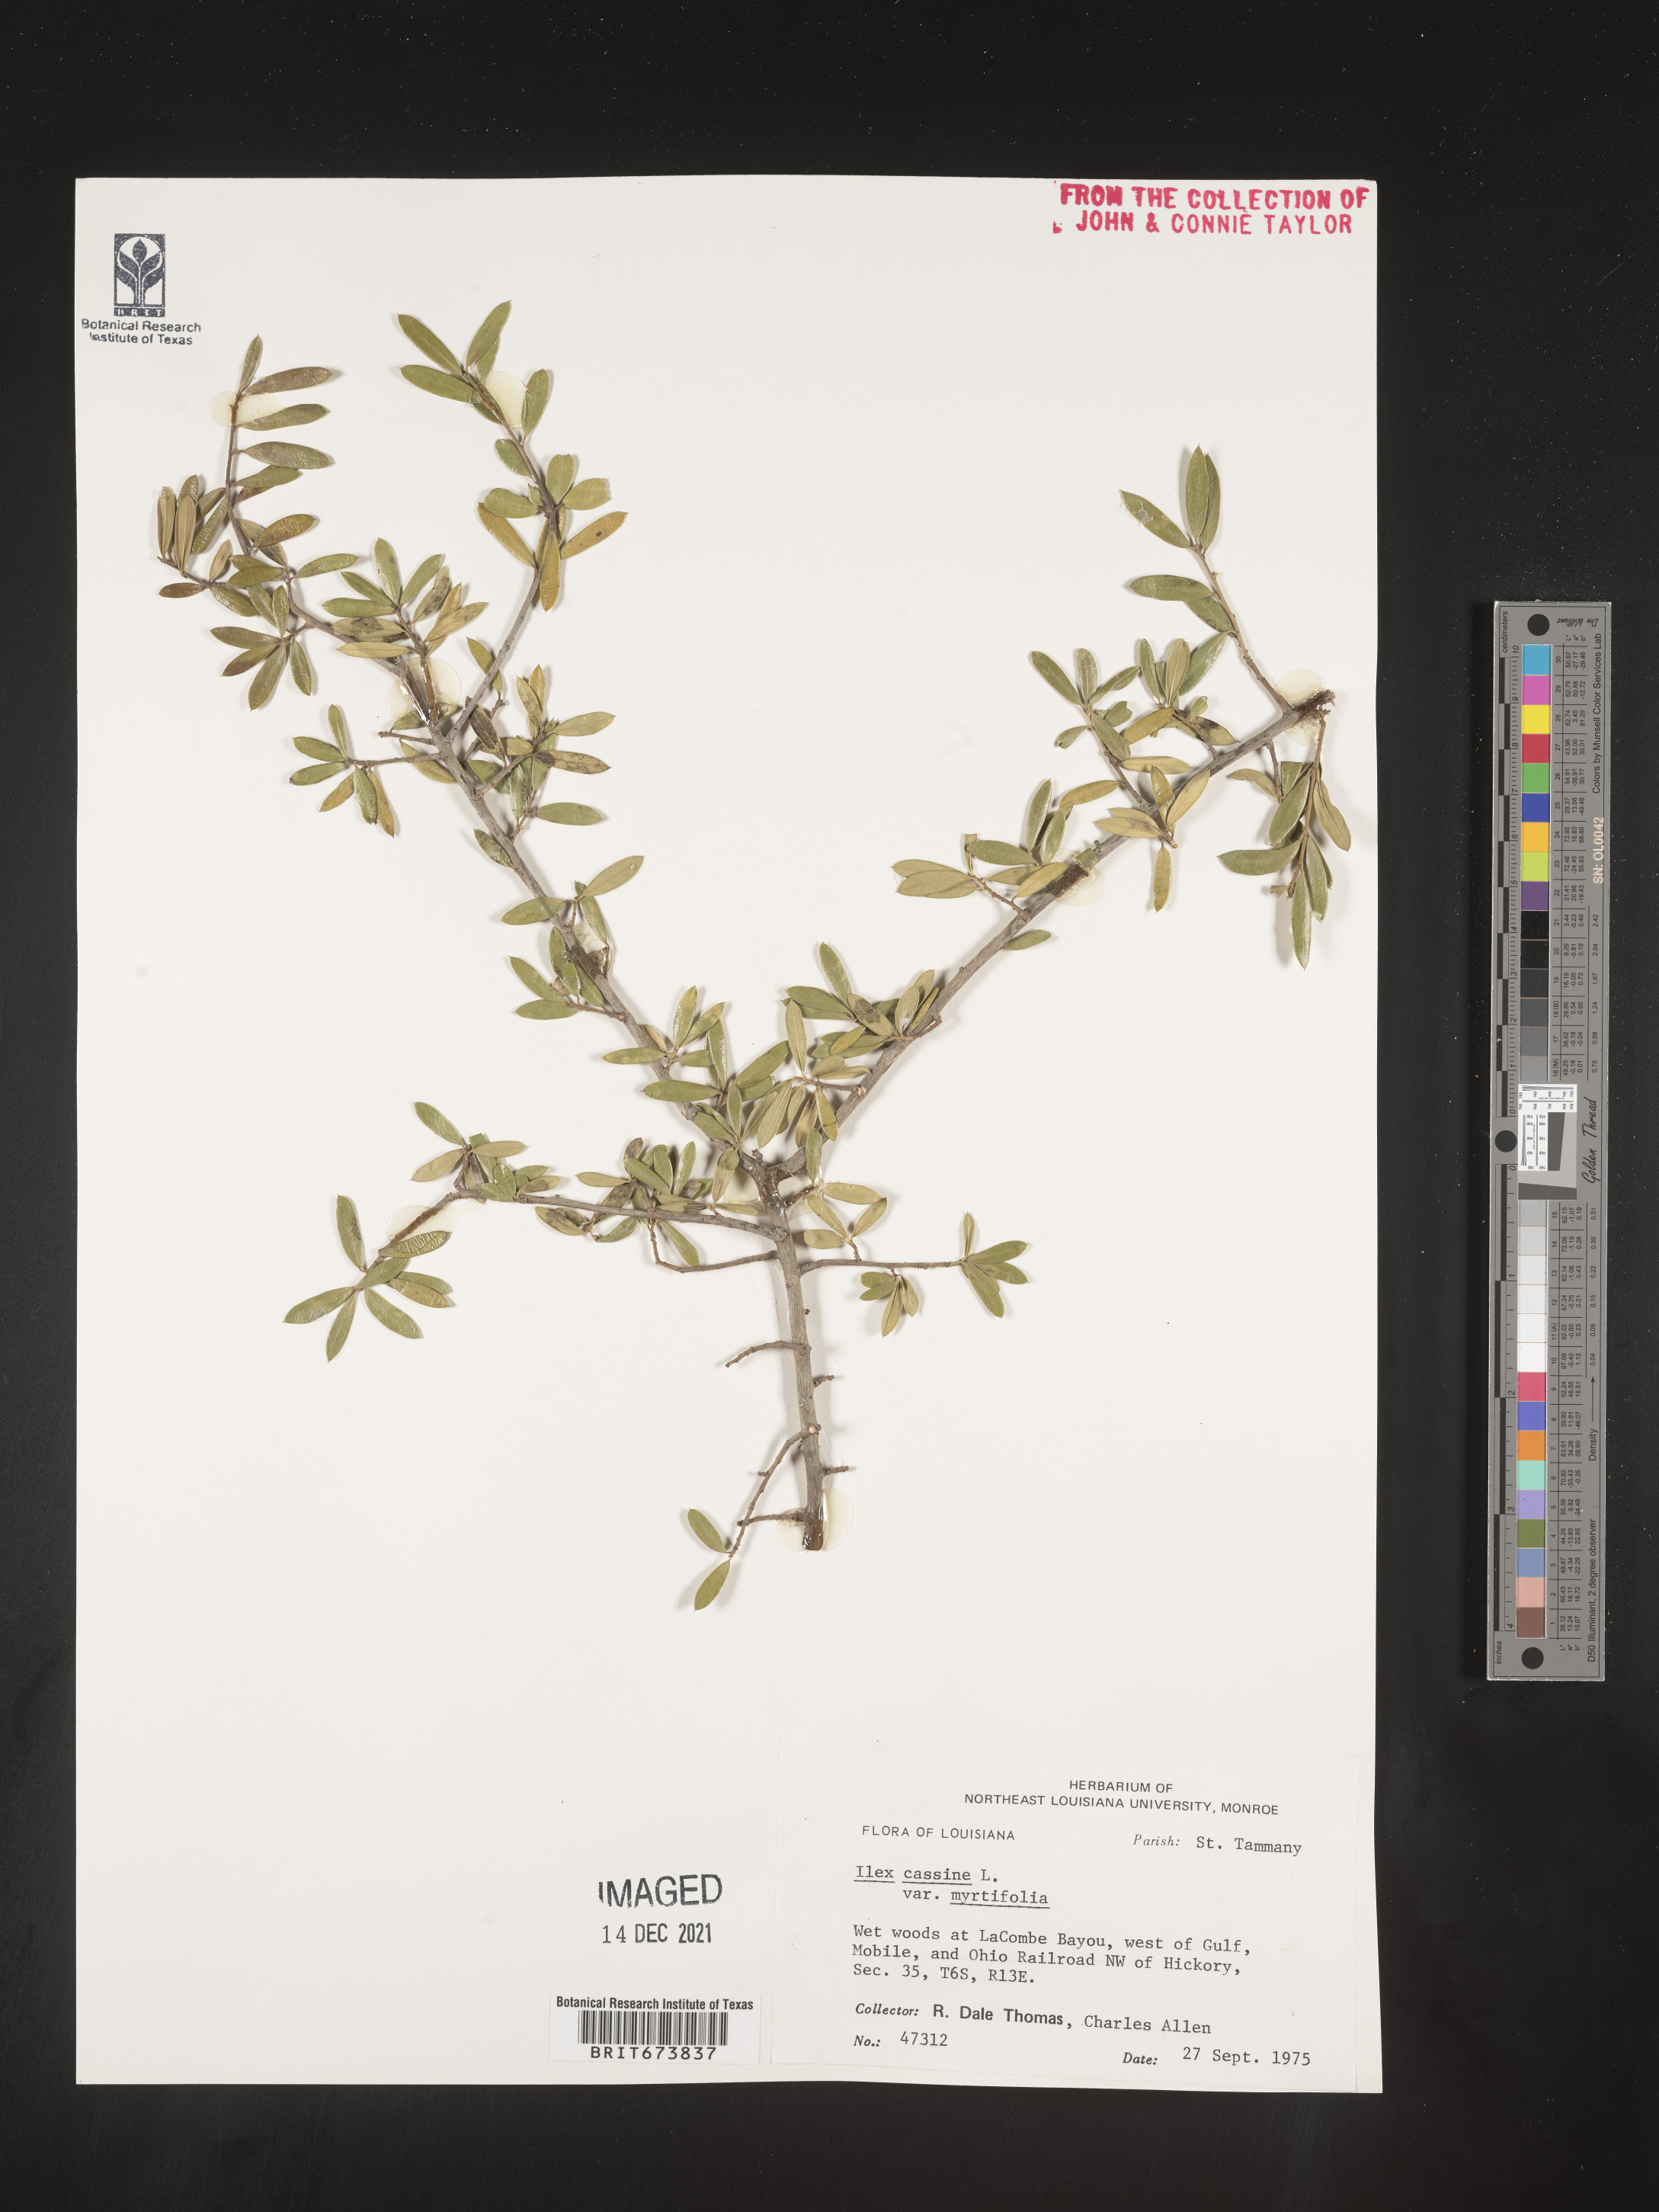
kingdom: Plantae
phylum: Tracheophyta
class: Magnoliopsida
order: Aquifoliales
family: Aquifoliaceae
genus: Ilex
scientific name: Ilex myrtifolia
